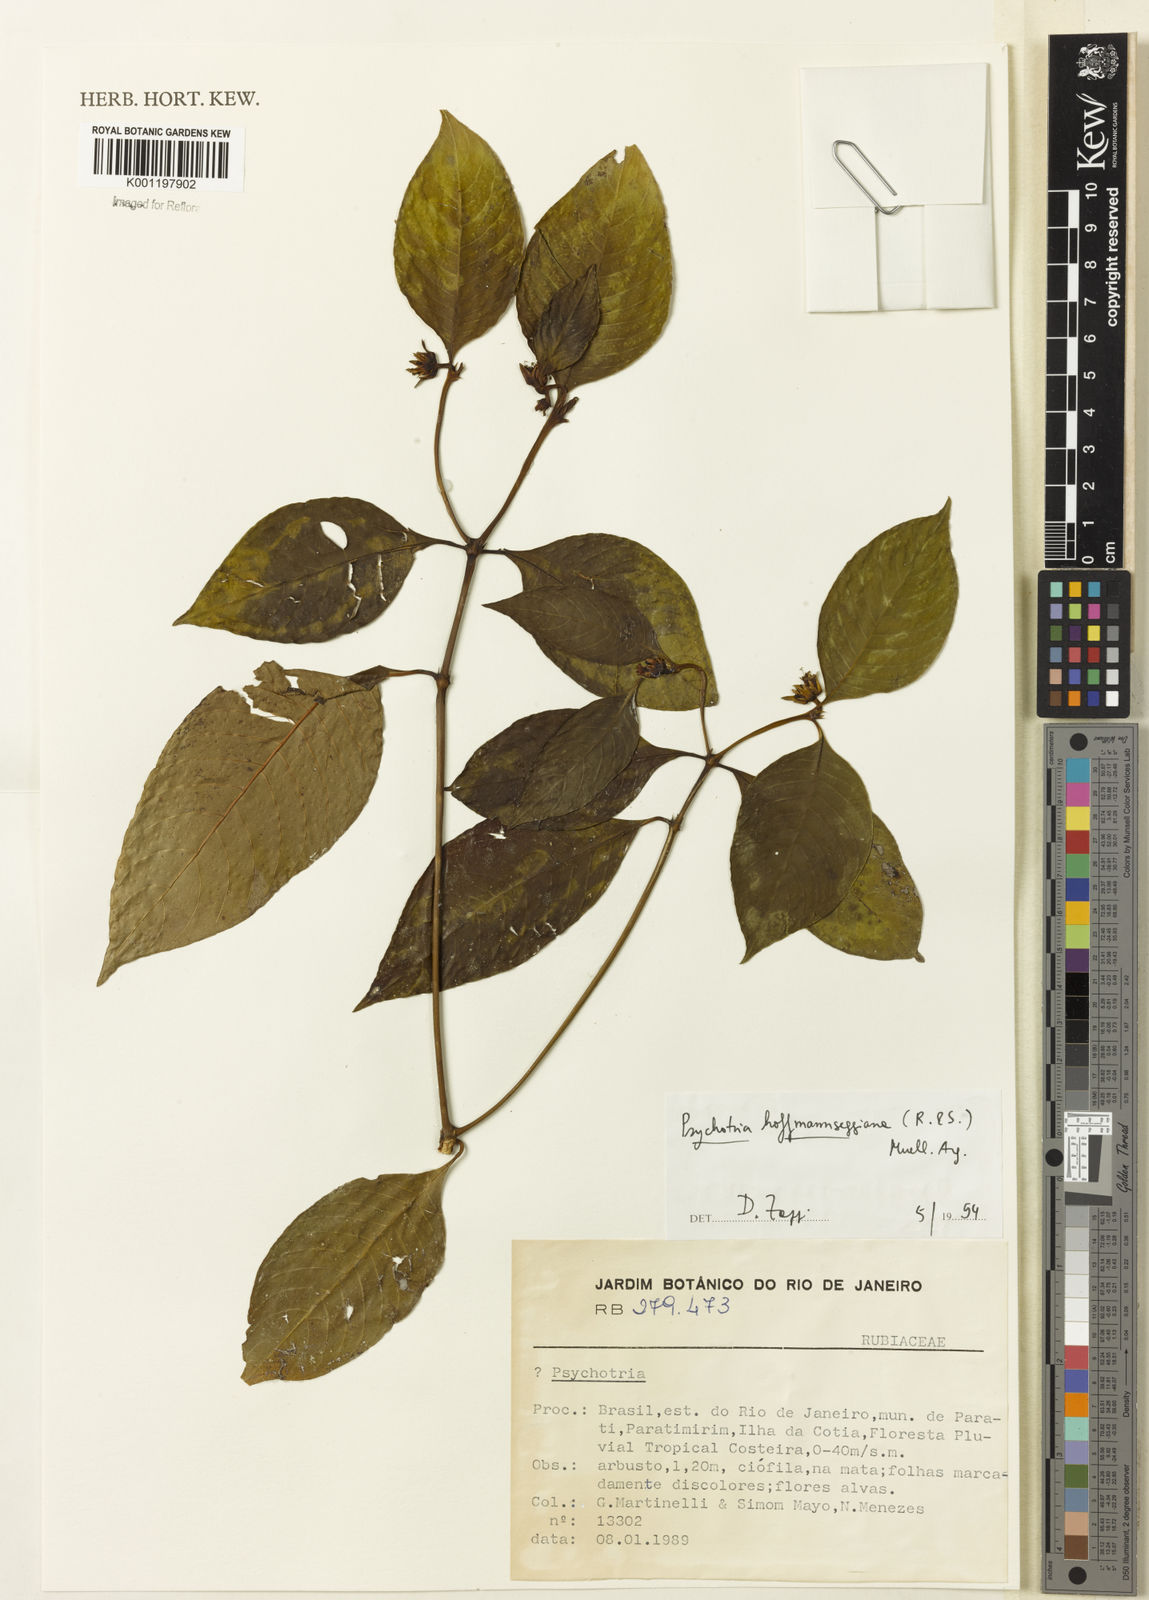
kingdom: Plantae
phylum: Tracheophyta
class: Magnoliopsida
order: Gentianales
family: Rubiaceae
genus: Psychotria
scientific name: Psychotria
